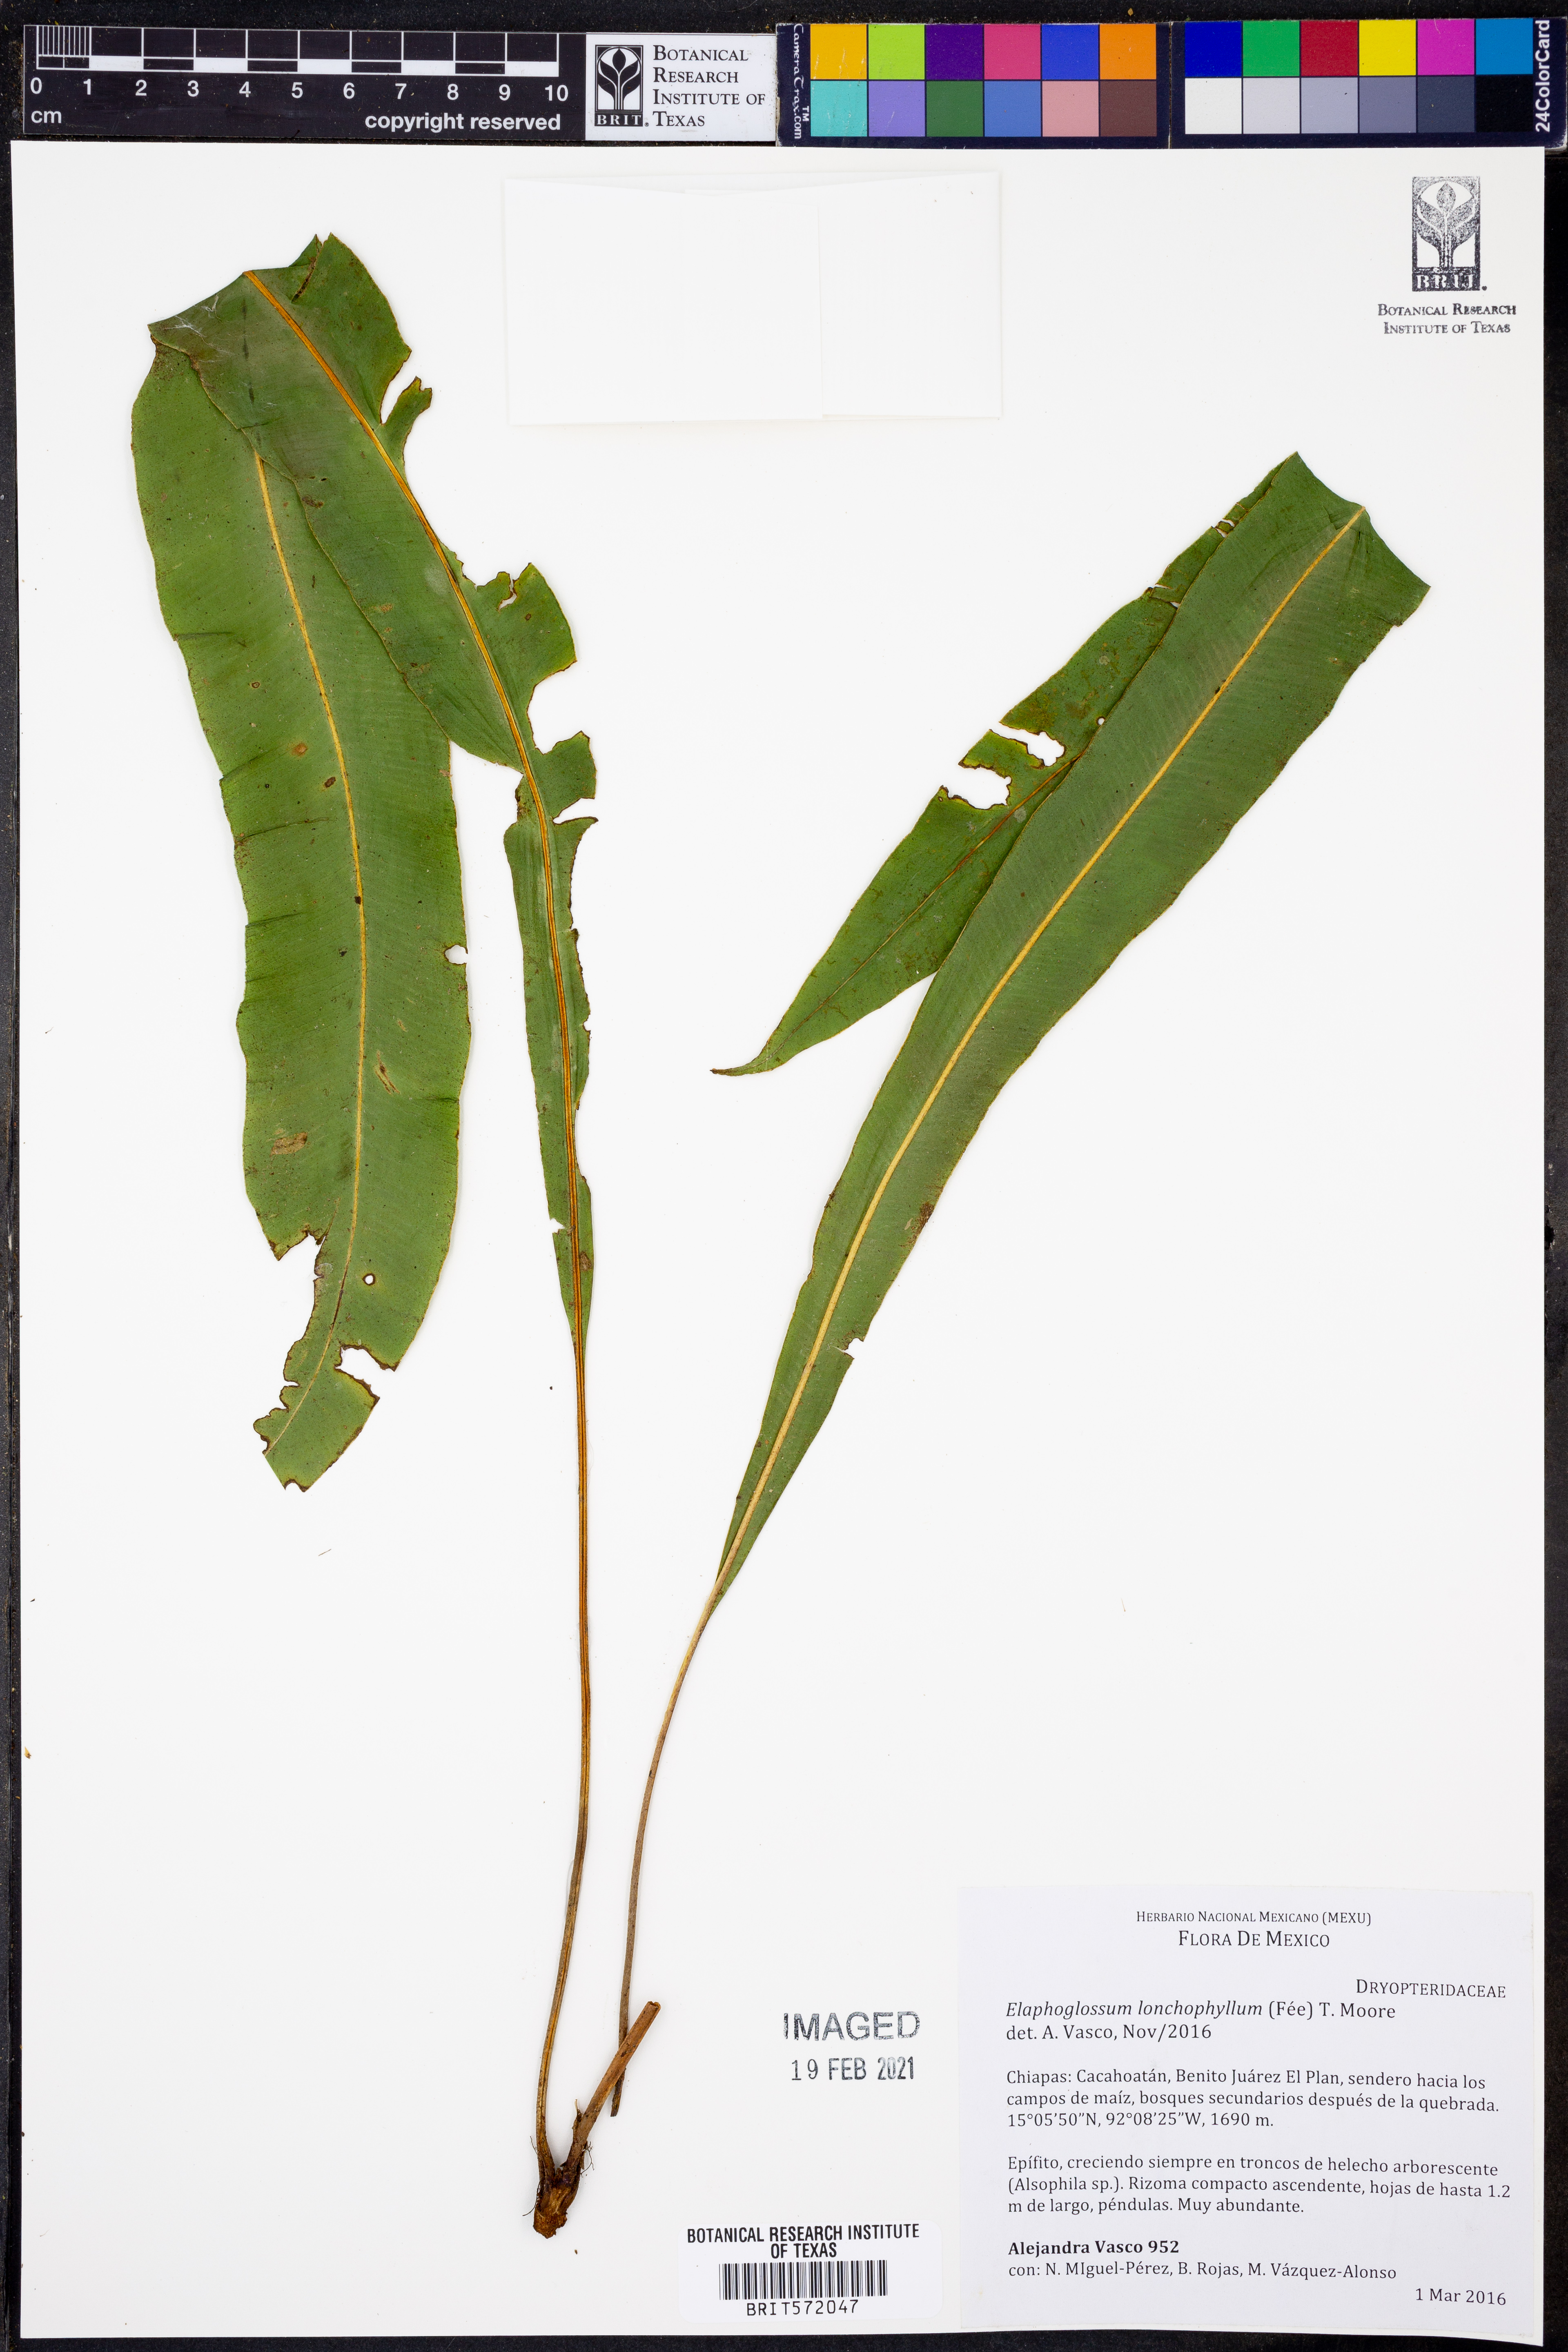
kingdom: Plantae
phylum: Tracheophyta
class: Polypodiopsida
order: Polypodiales
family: Dryopteridaceae
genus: Elaphoglossum
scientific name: Elaphoglossum lonchophyllum
